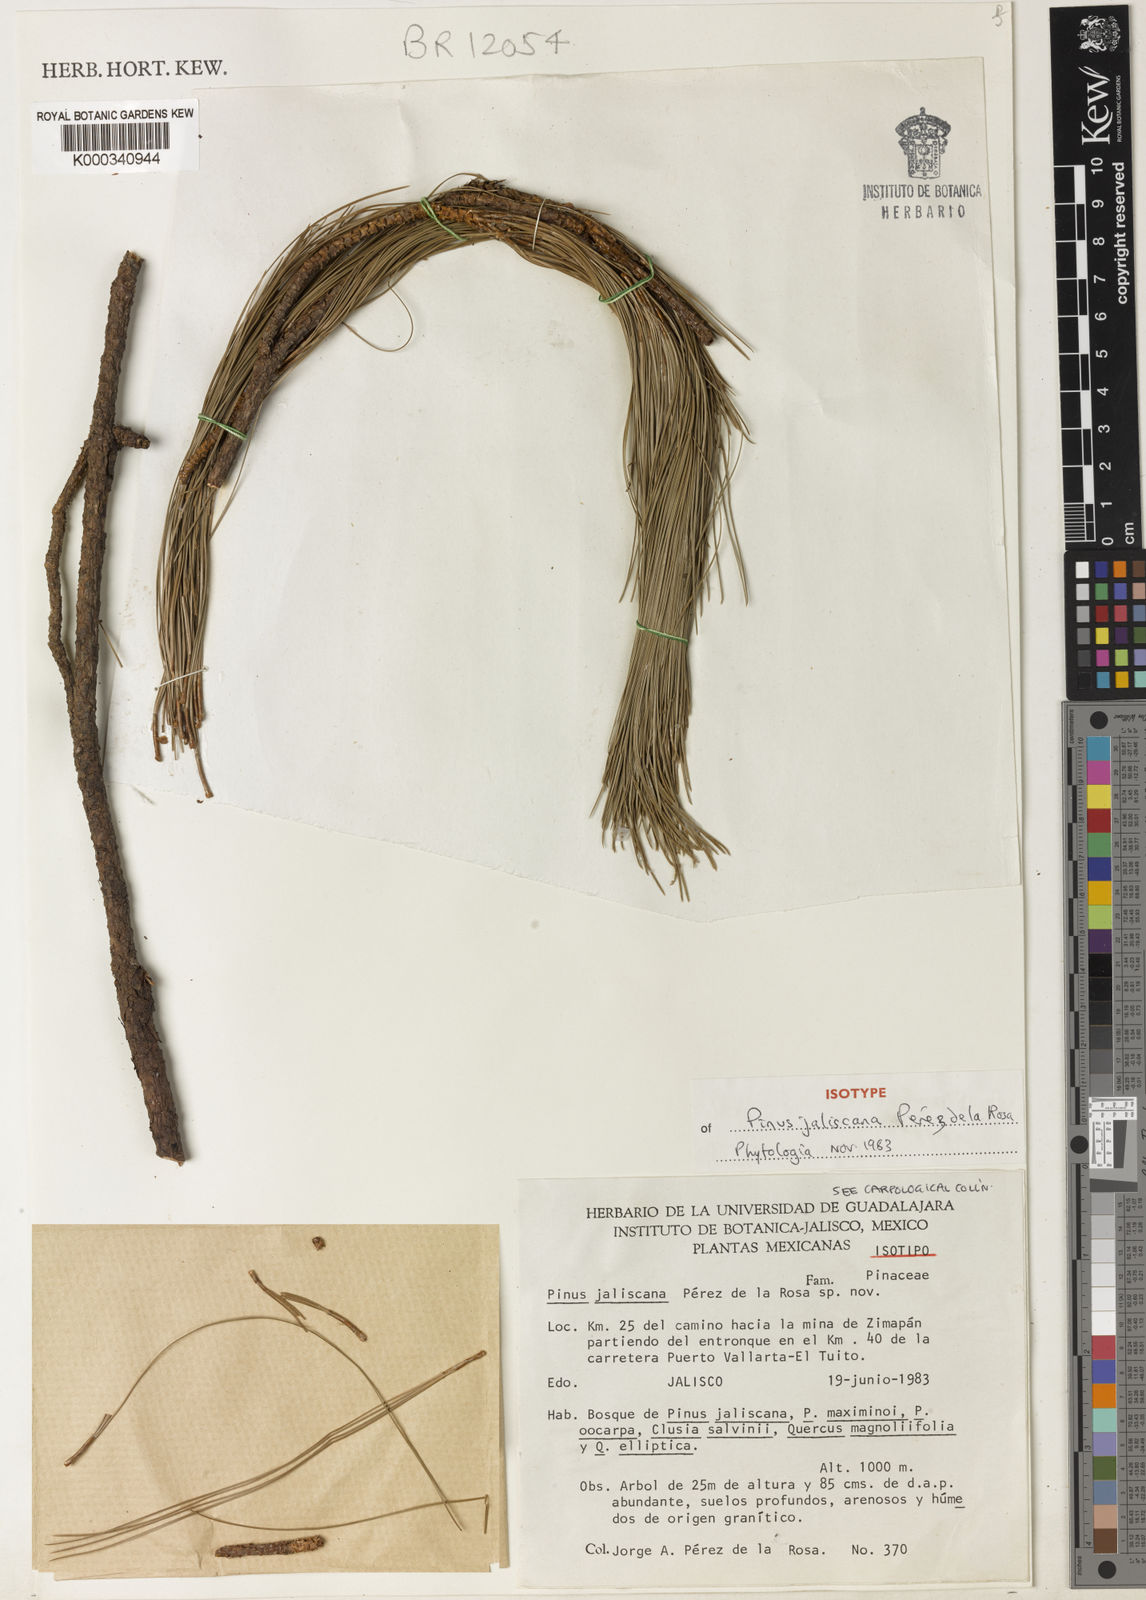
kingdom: Plantae
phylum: Tracheophyta
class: Pinopsida
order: Pinales
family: Pinaceae
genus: Pinus
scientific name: Pinus
